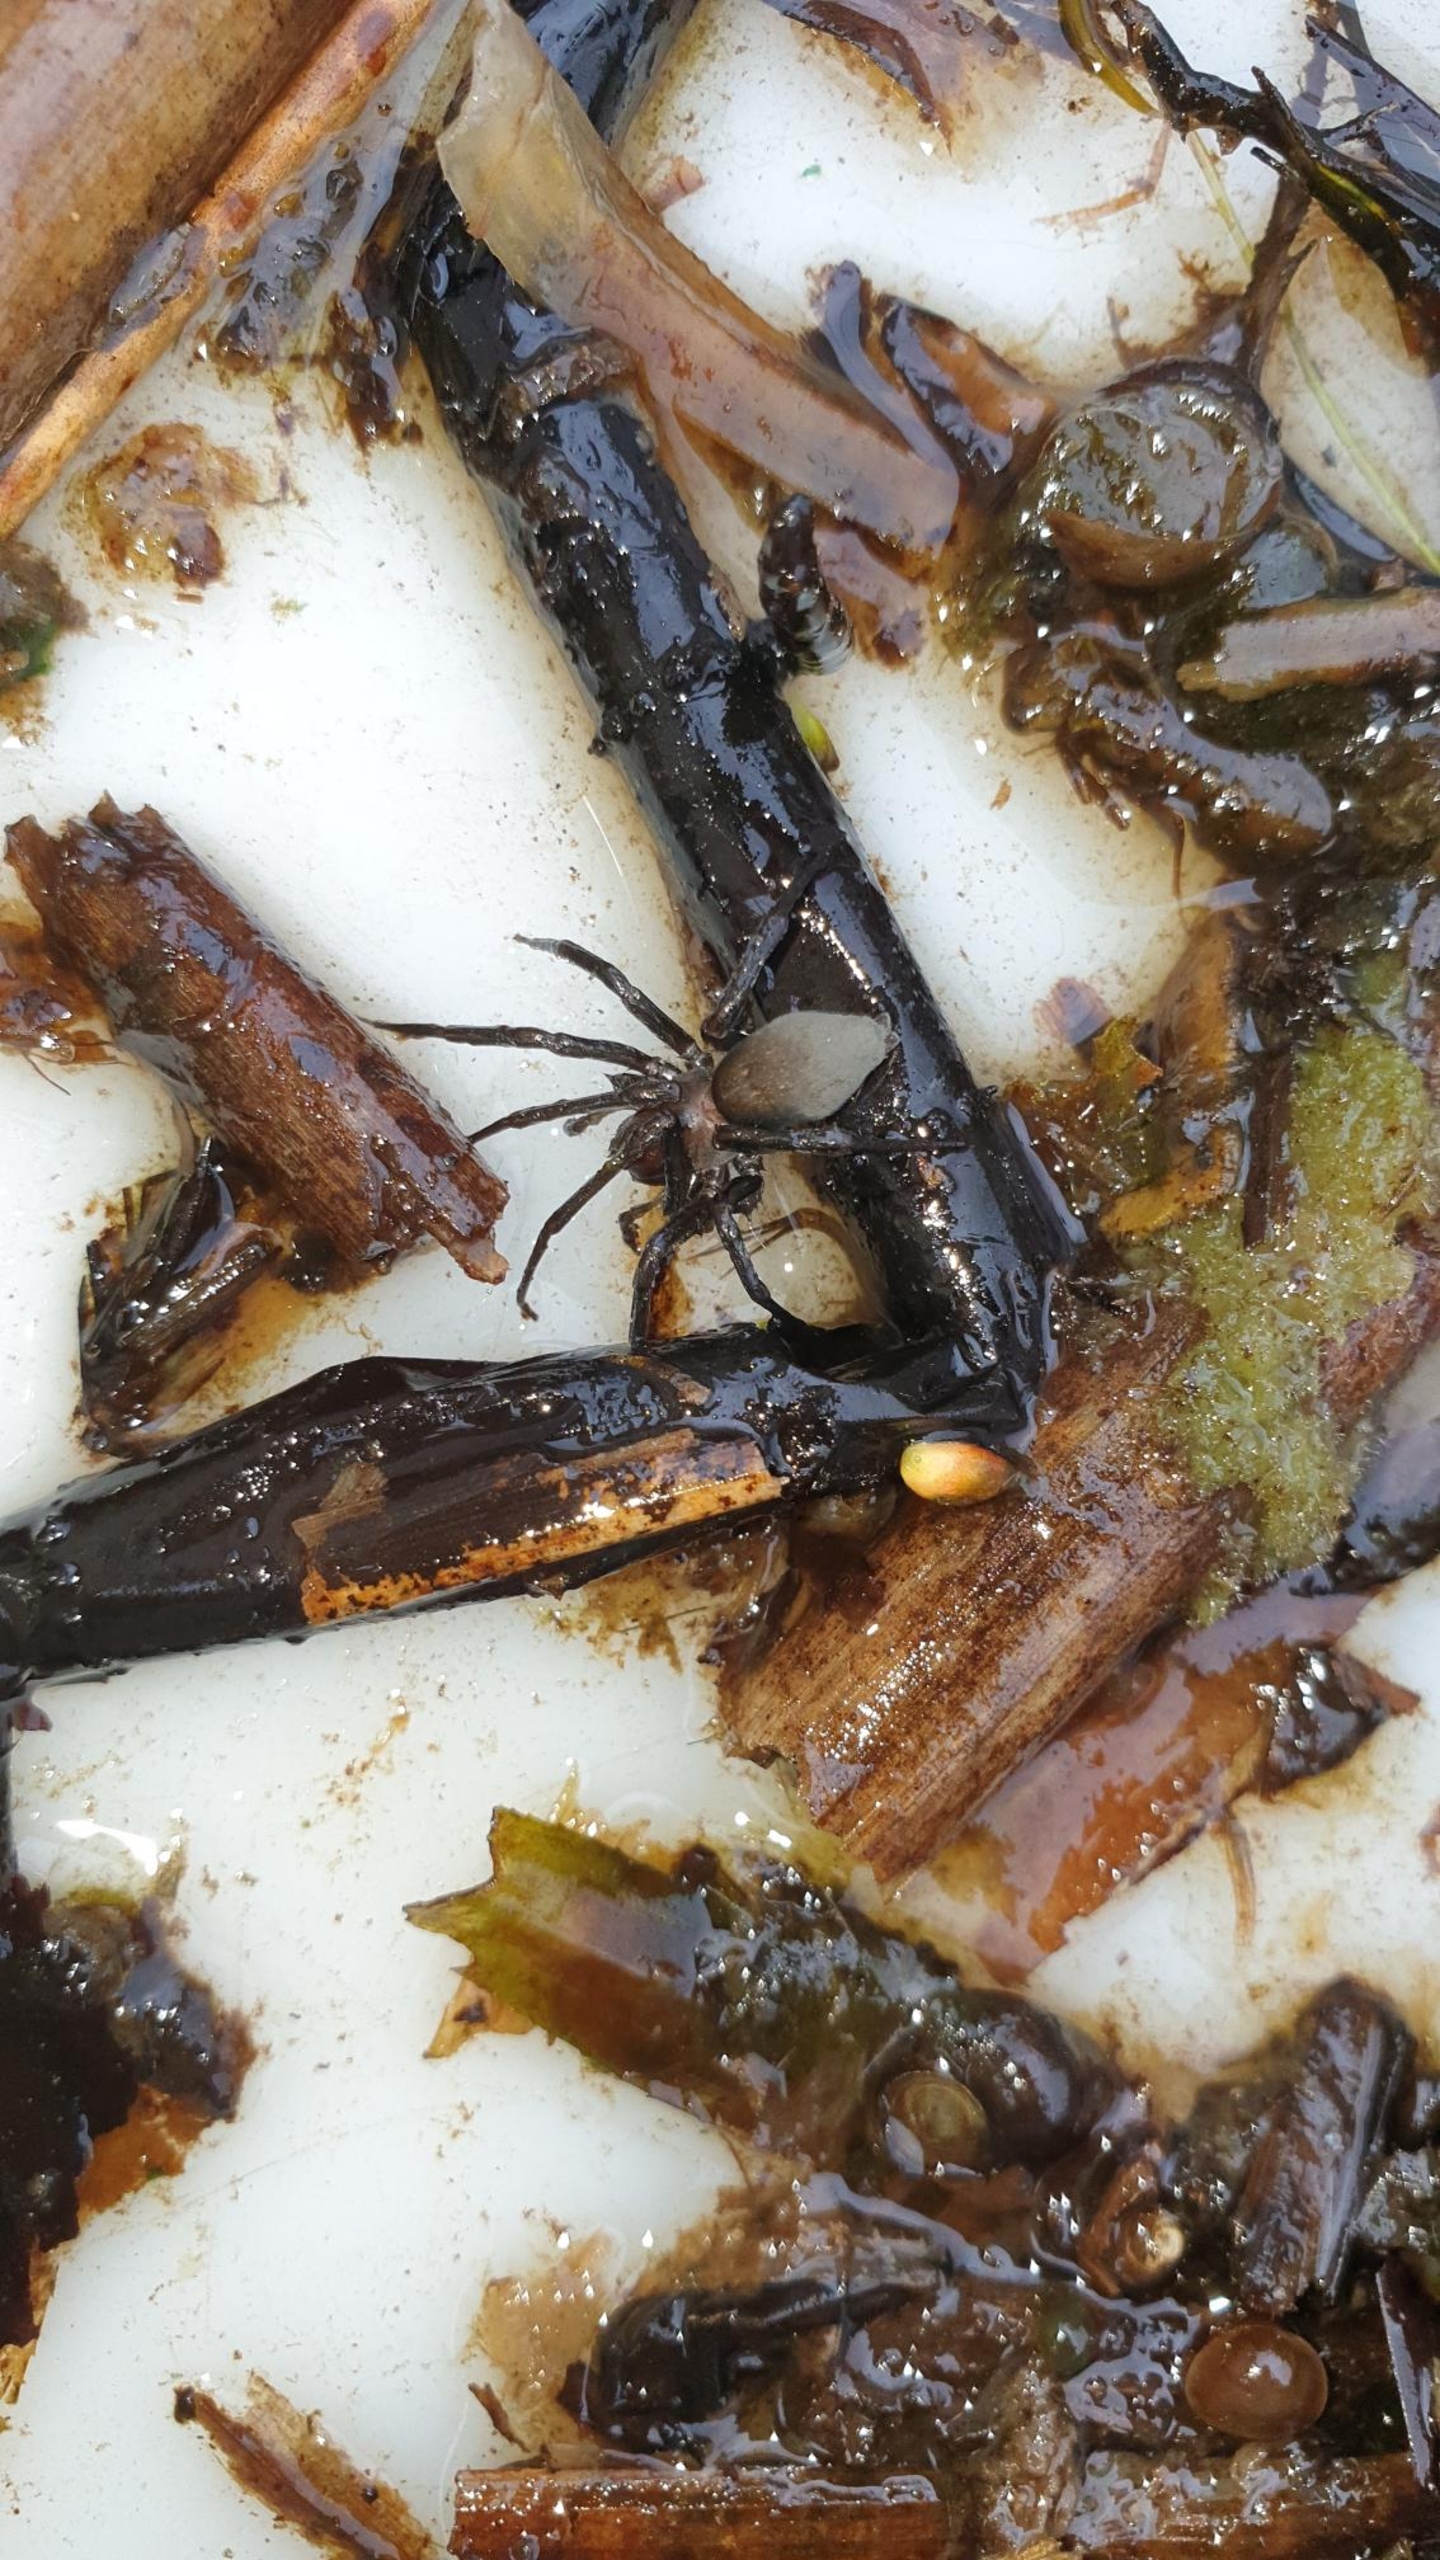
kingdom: Animalia
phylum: Arthropoda
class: Arachnida
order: Araneae
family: Dictynidae
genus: Argyroneta
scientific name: Argyroneta aquatica
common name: Vandedderkop
